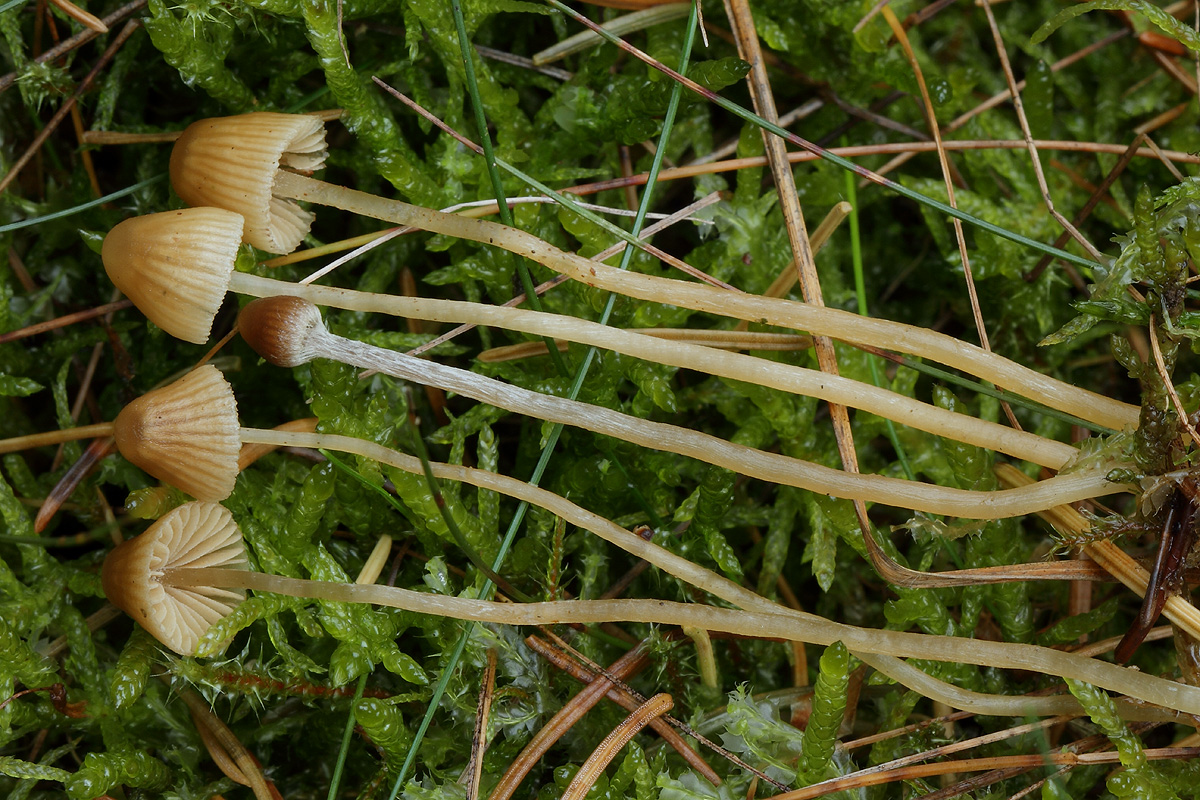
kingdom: Fungi
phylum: Basidiomycota
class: Agaricomycetes
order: Agaricales
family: Hymenogastraceae
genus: Galerina
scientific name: Galerina cephalotricha
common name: hede-hjelmhat
